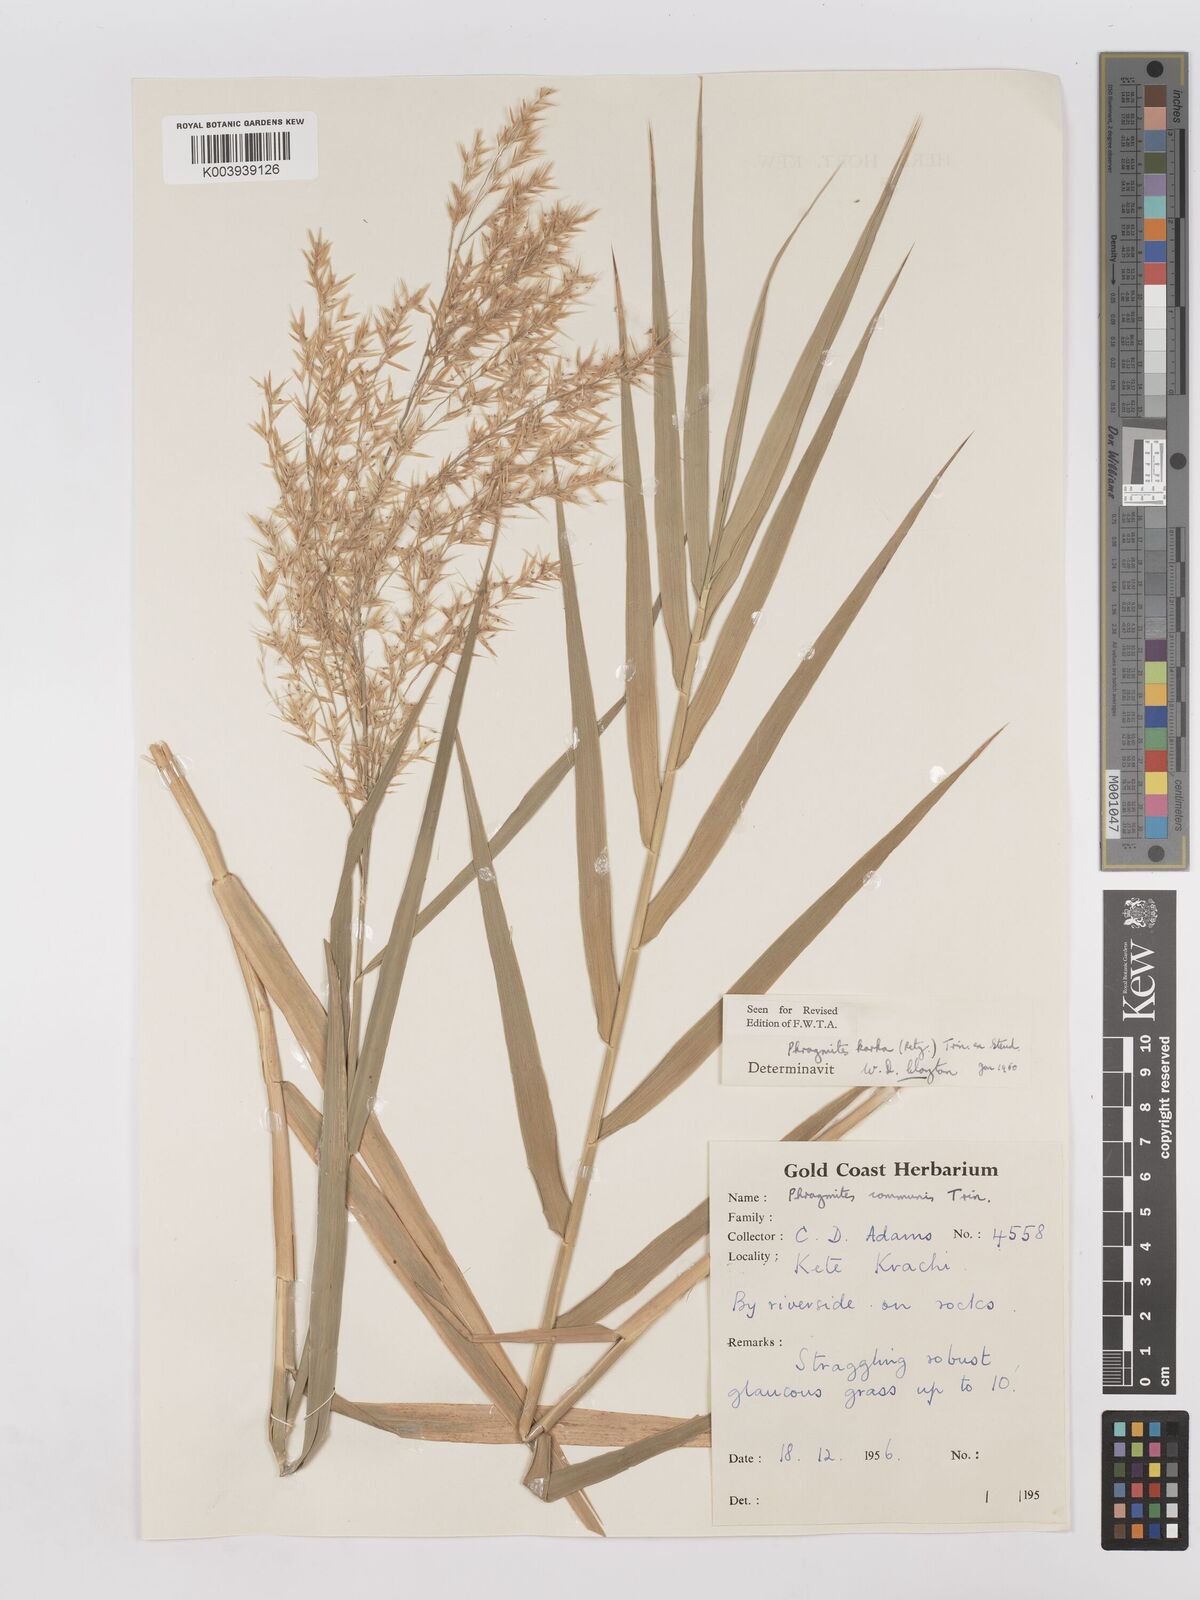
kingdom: Plantae
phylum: Tracheophyta
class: Liliopsida
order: Poales
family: Poaceae
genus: Phragmites
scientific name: Phragmites karka
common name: Tropical reed
